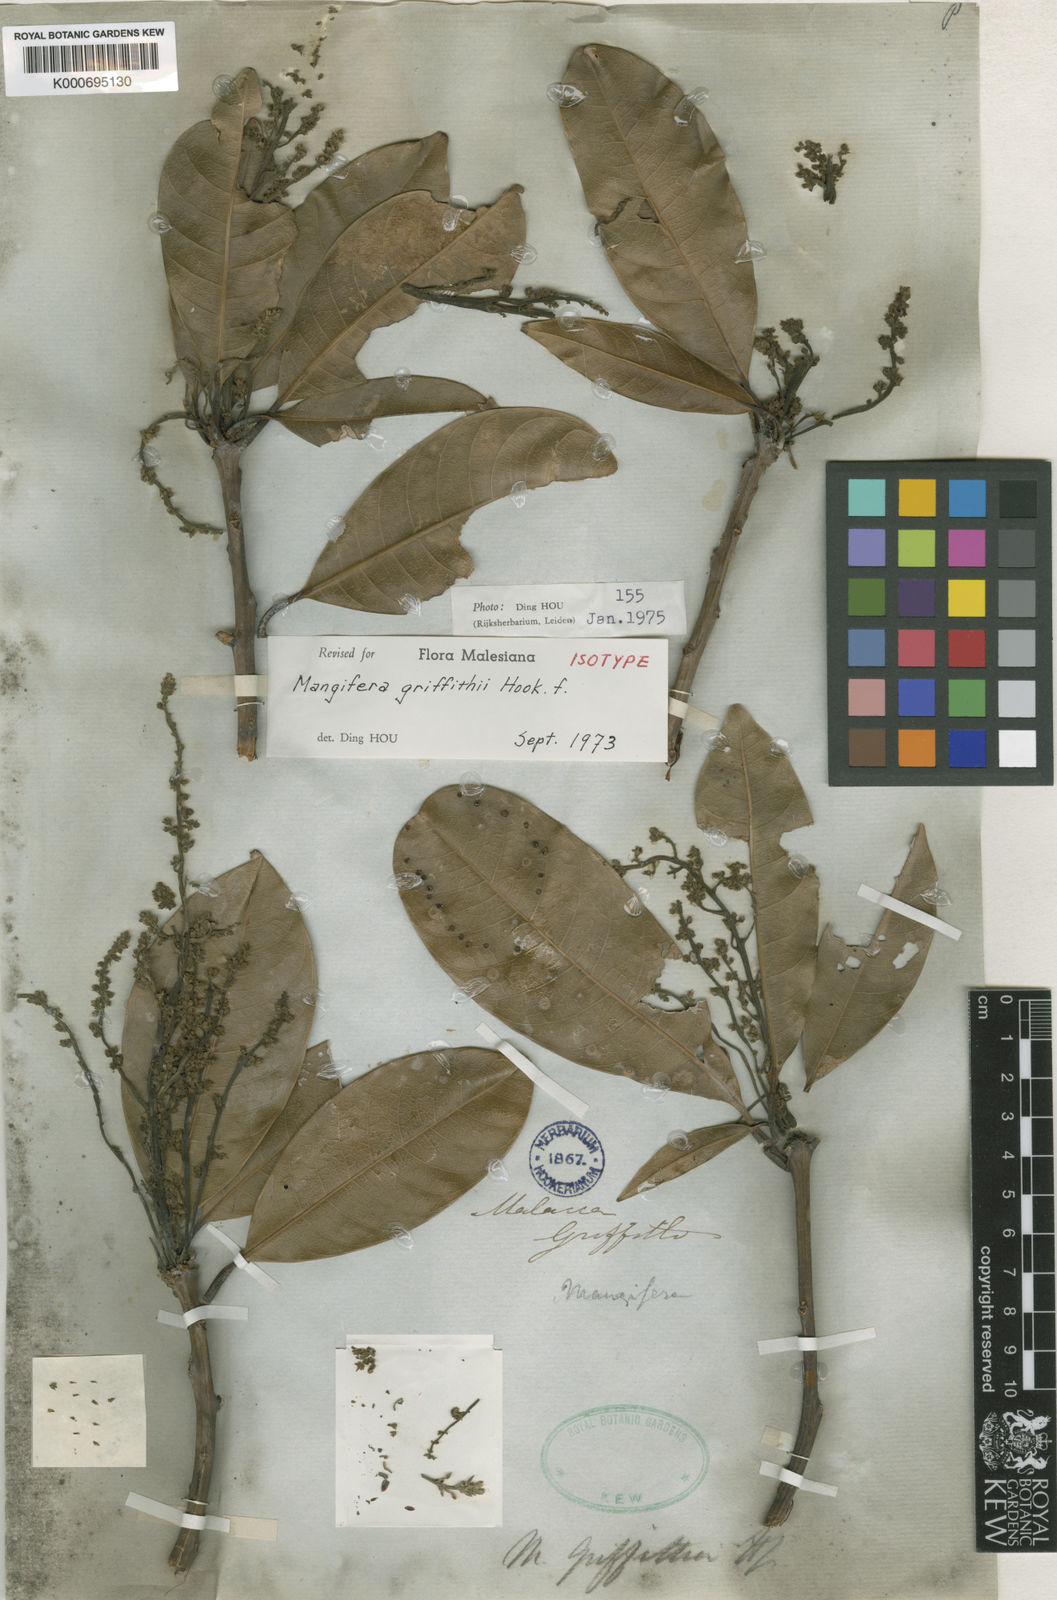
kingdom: Plantae
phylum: Tracheophyta
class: Magnoliopsida
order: Sapindales
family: Anacardiaceae
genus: Mangifera
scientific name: Mangifera griffithii
